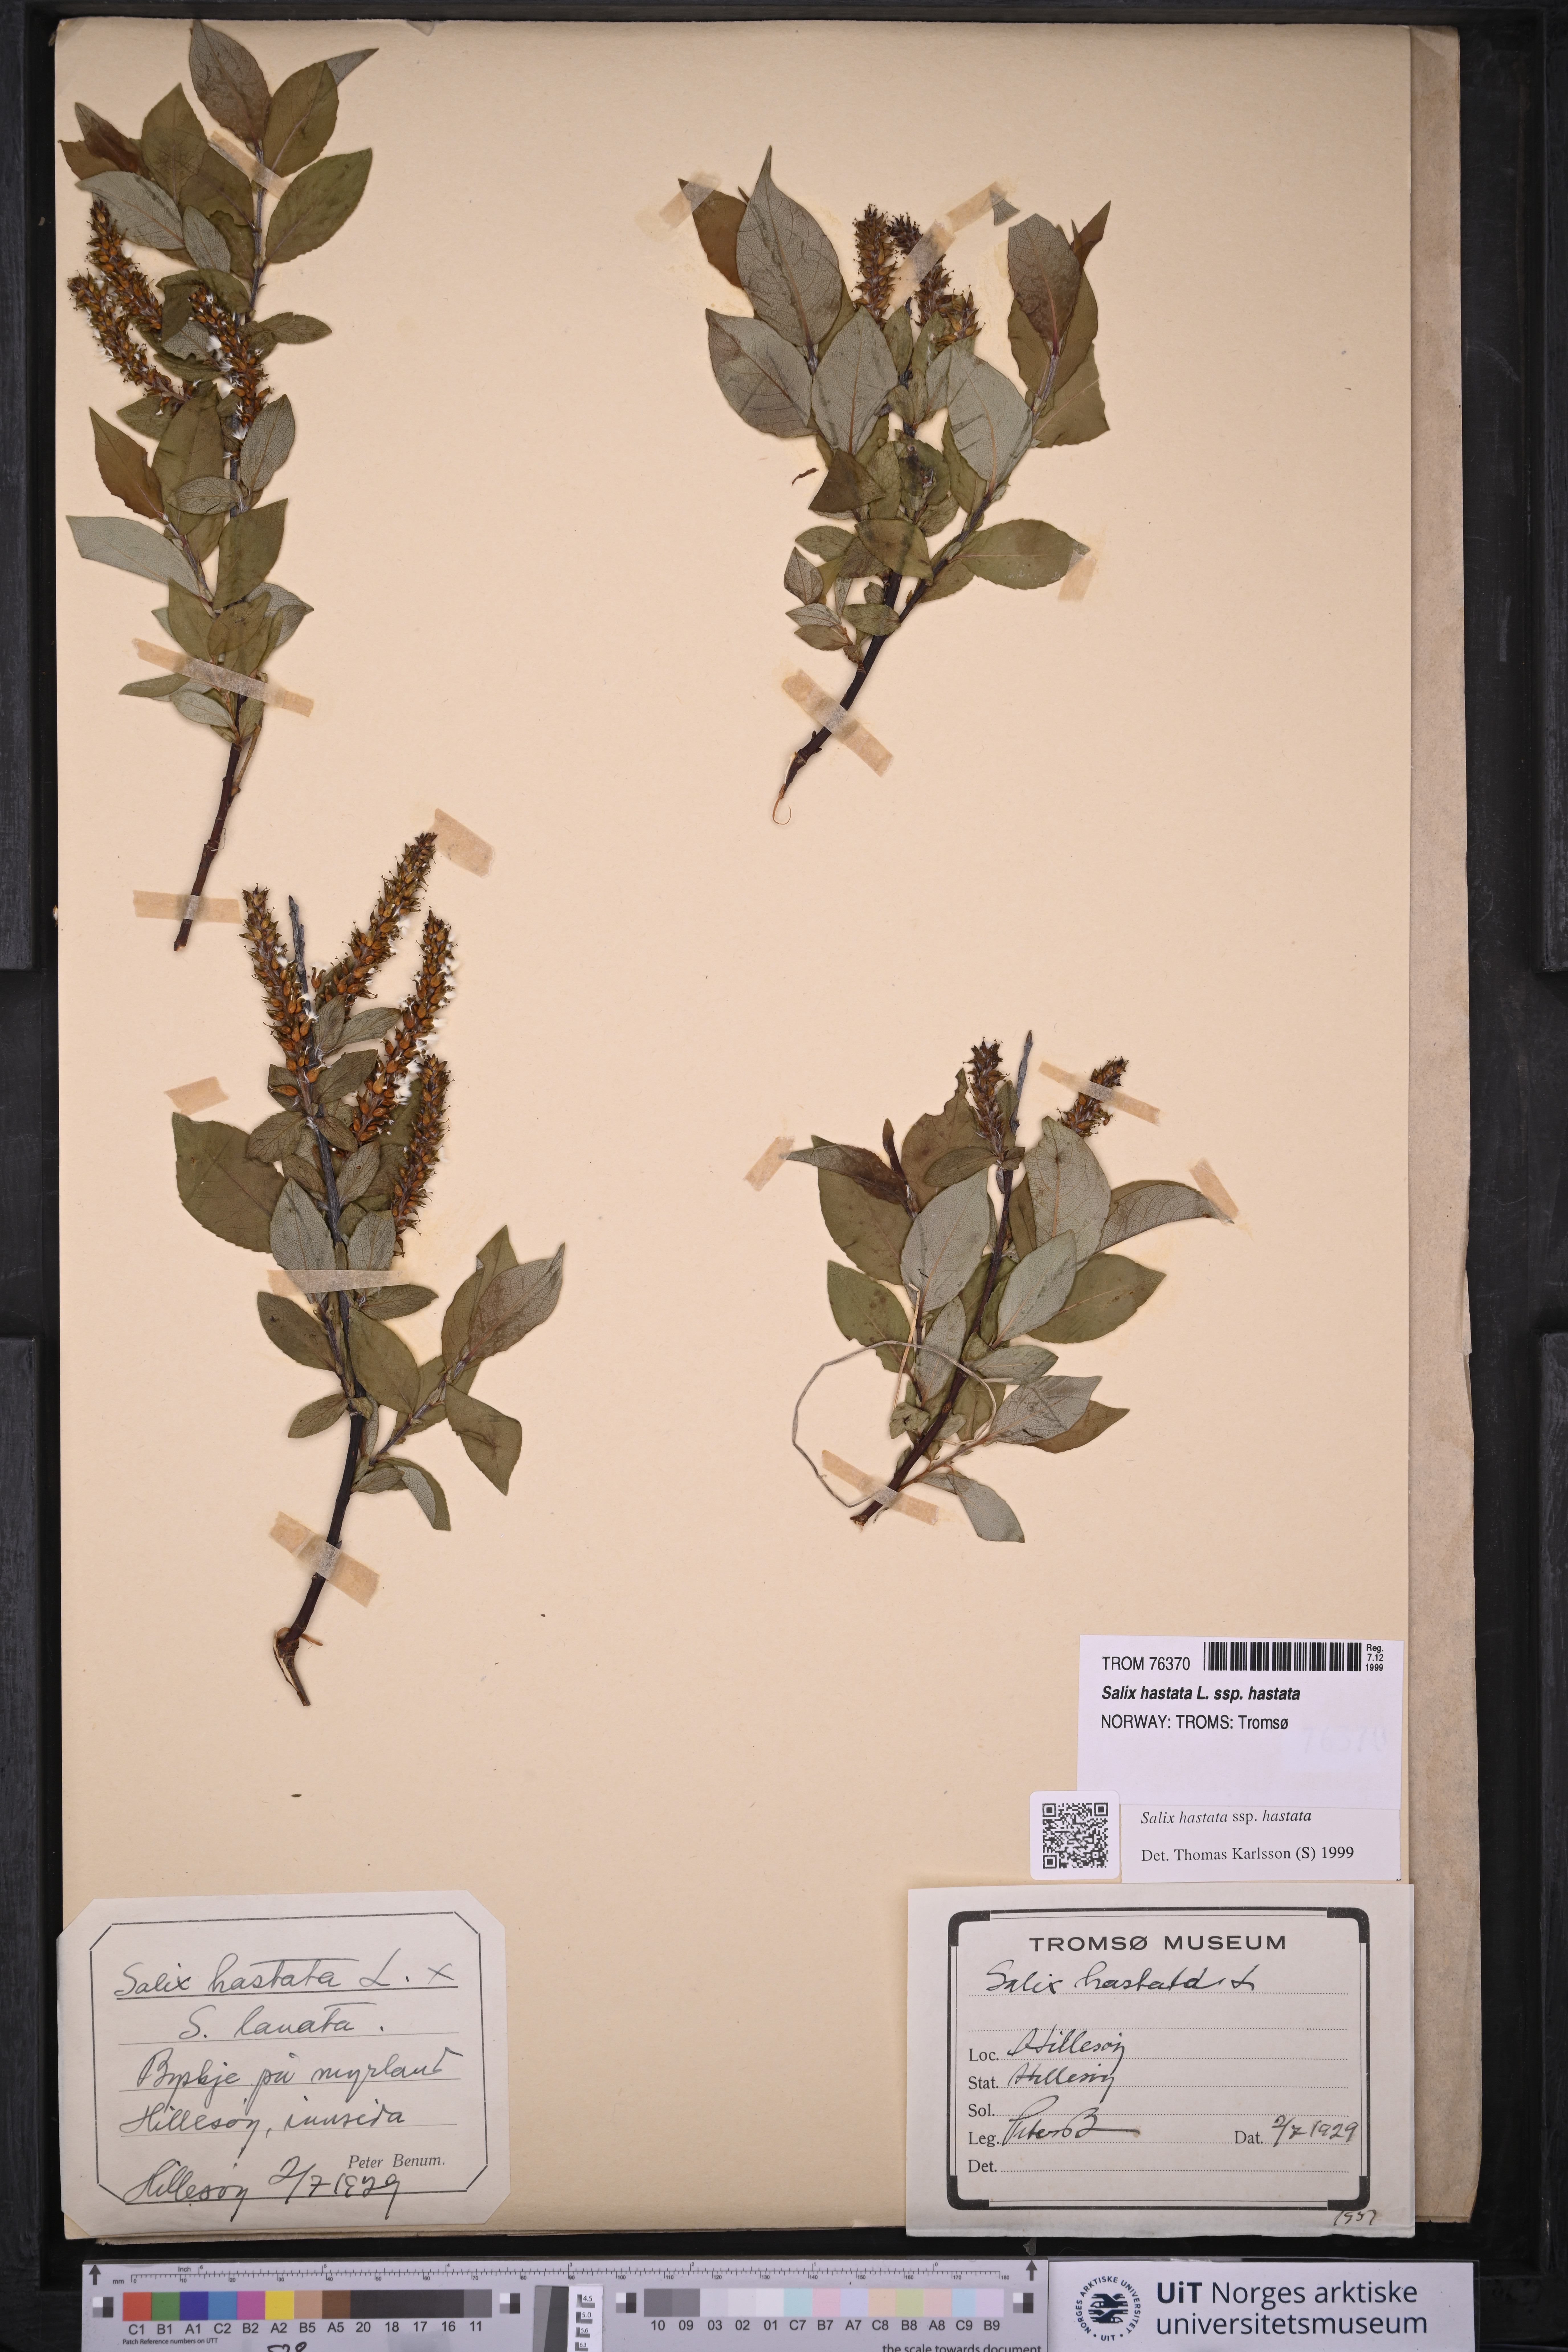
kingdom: Plantae
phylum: Tracheophyta
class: Magnoliopsida
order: Malpighiales
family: Salicaceae
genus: Salix
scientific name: Salix hastata
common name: Halberd willow
